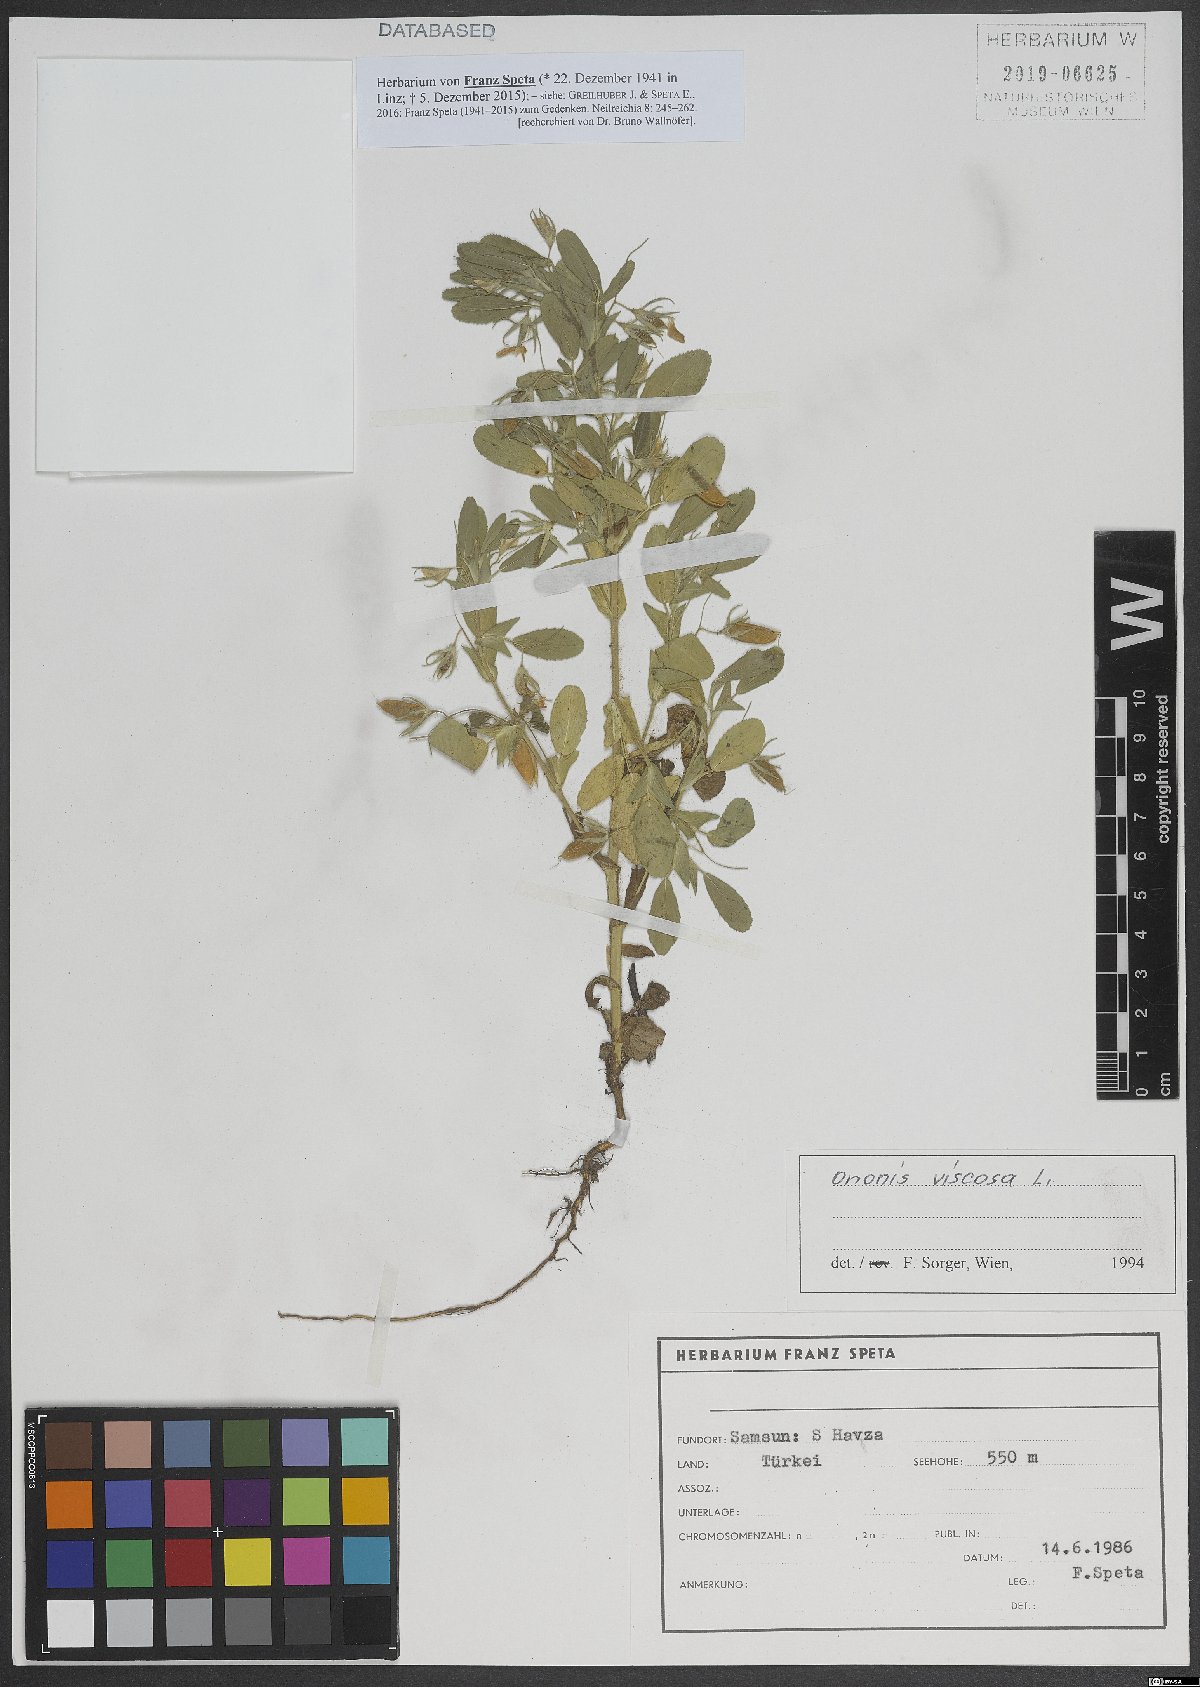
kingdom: Plantae
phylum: Tracheophyta
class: Magnoliopsida
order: Fabales
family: Fabaceae
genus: Ononis
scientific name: Ononis viscosa
